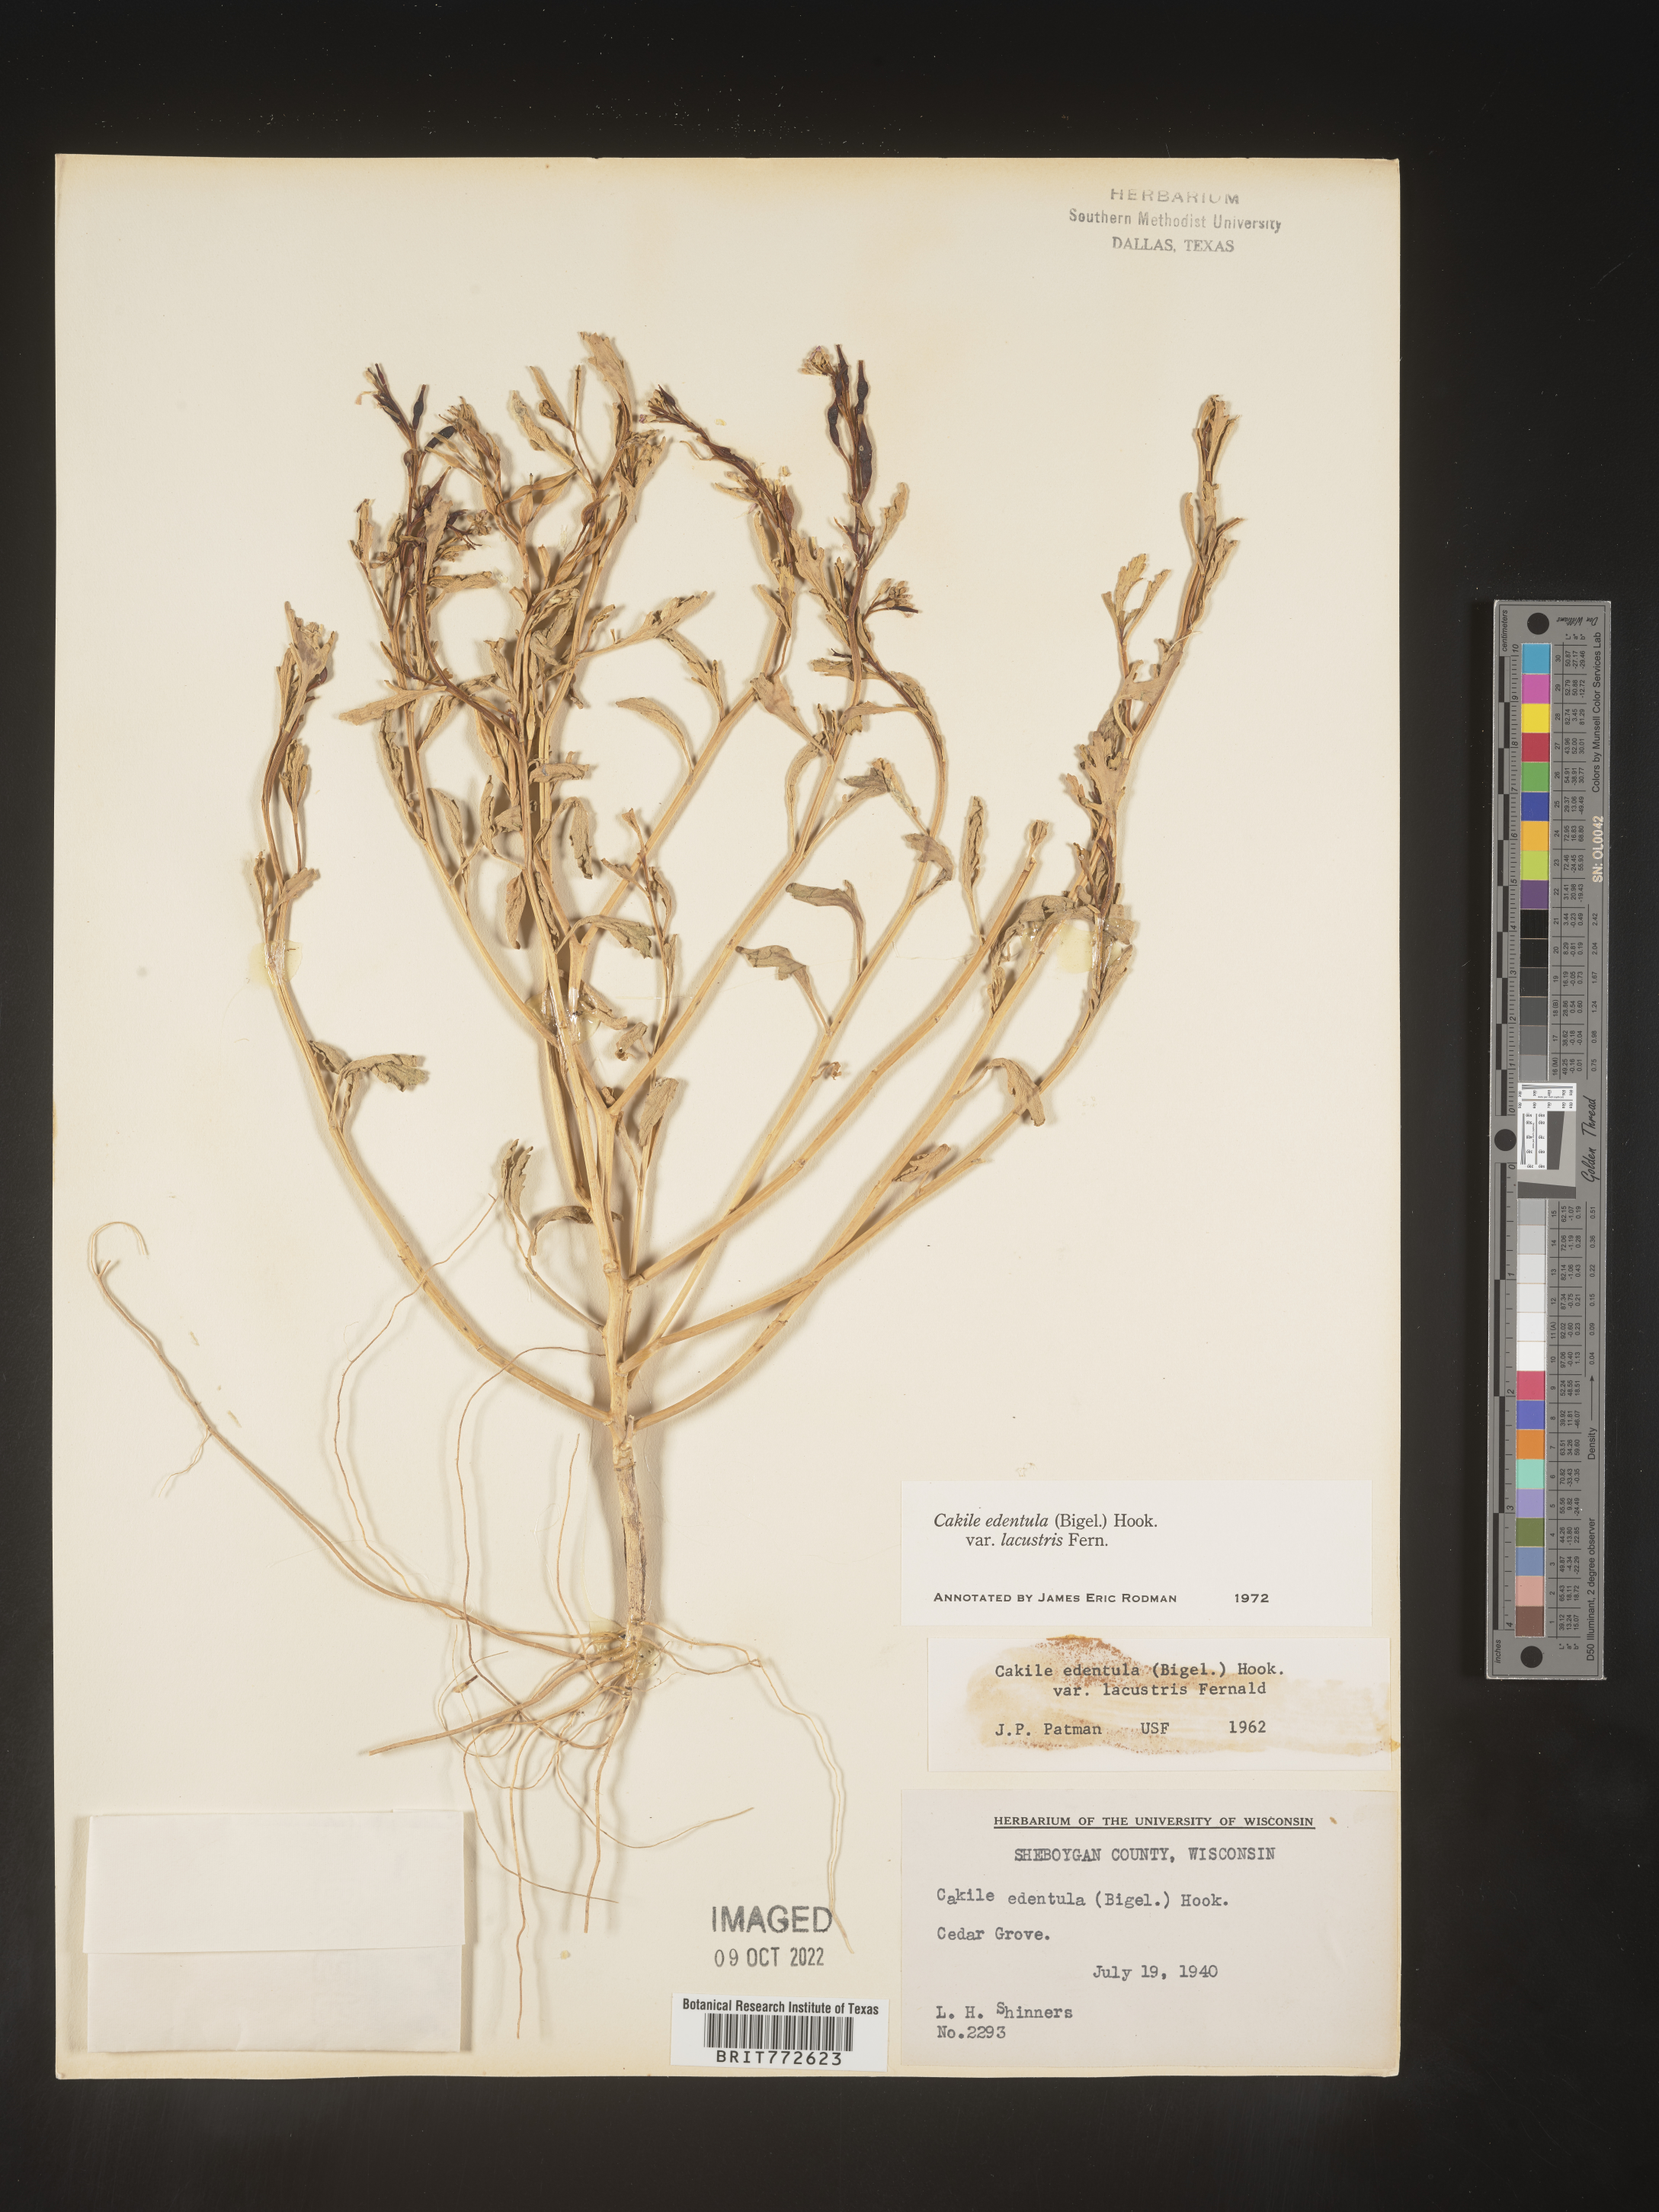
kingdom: Plantae
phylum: Tracheophyta
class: Magnoliopsida
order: Brassicales
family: Brassicaceae
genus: Cakile
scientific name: Cakile edentula
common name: American sea rocket
